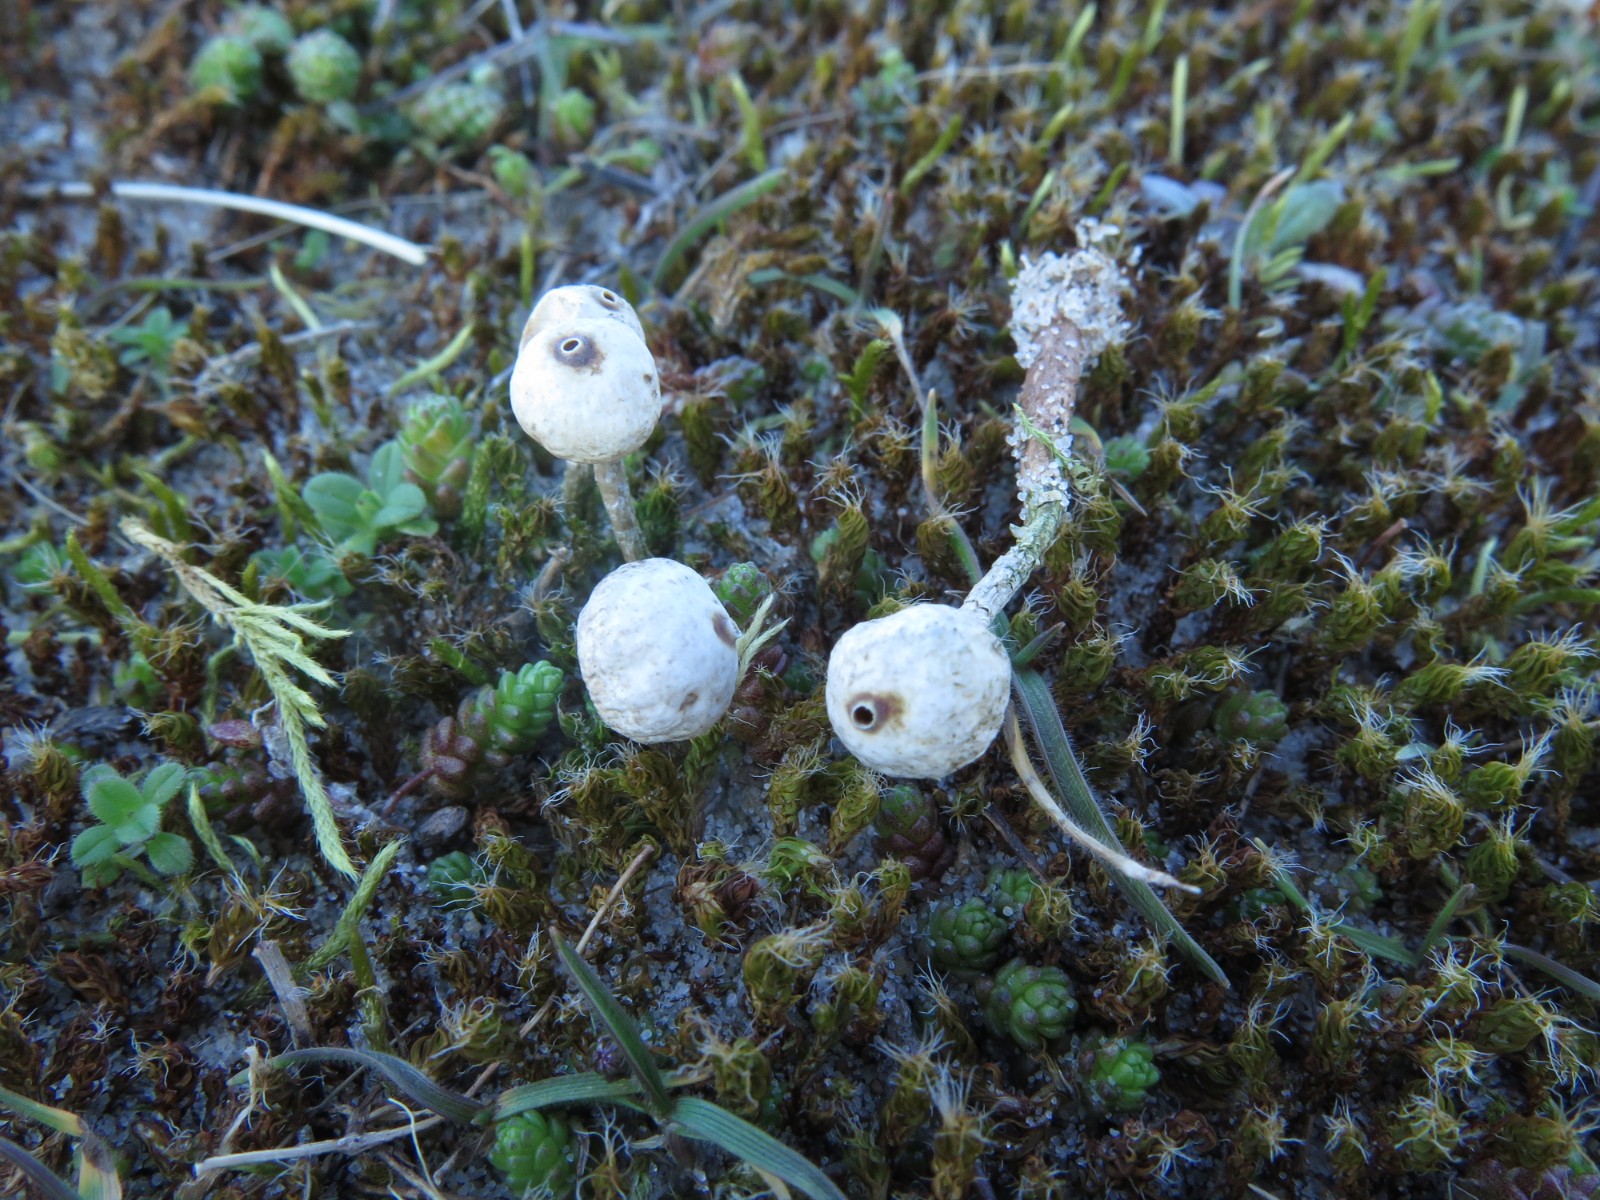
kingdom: Fungi
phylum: Basidiomycota
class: Agaricomycetes
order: Agaricales
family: Agaricaceae
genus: Tulostoma
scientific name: Tulostoma brumale
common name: vinter-stilkbovist
